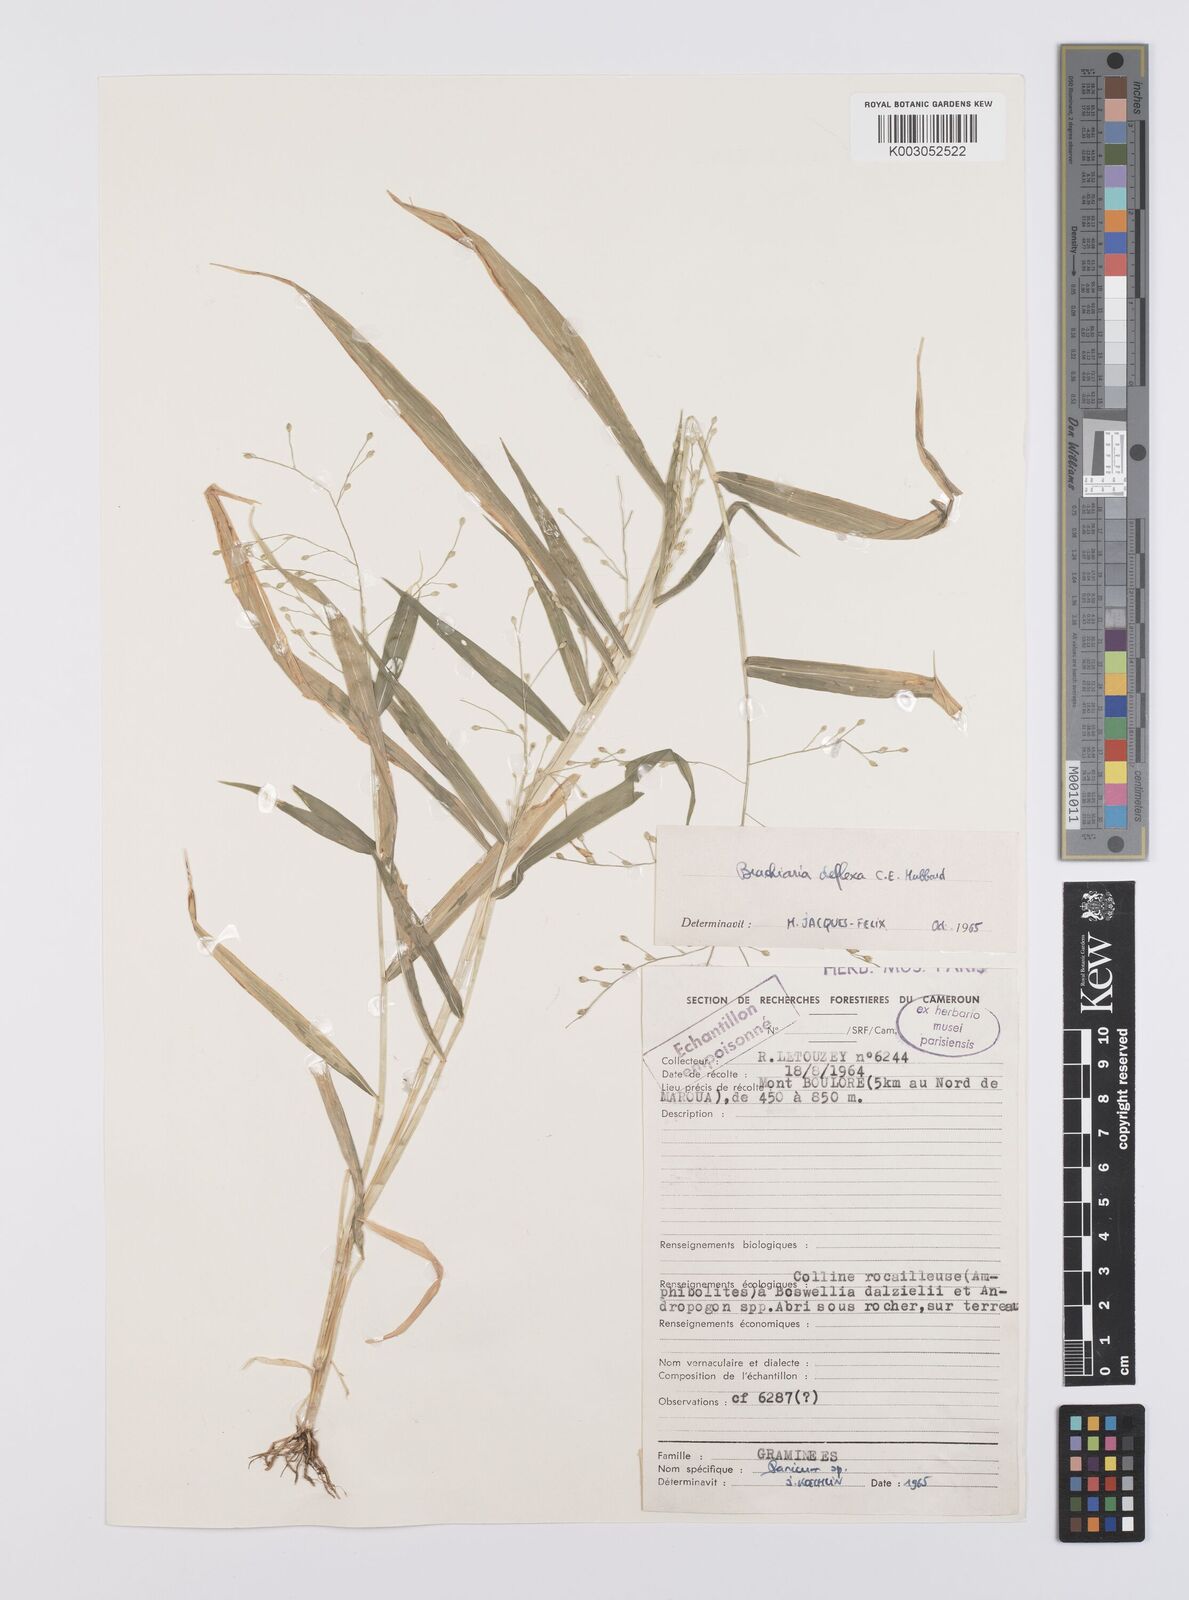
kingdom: Plantae
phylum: Tracheophyta
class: Liliopsida
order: Poales
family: Poaceae
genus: Urochloa
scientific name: Urochloa deflexa
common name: Guinea millet
